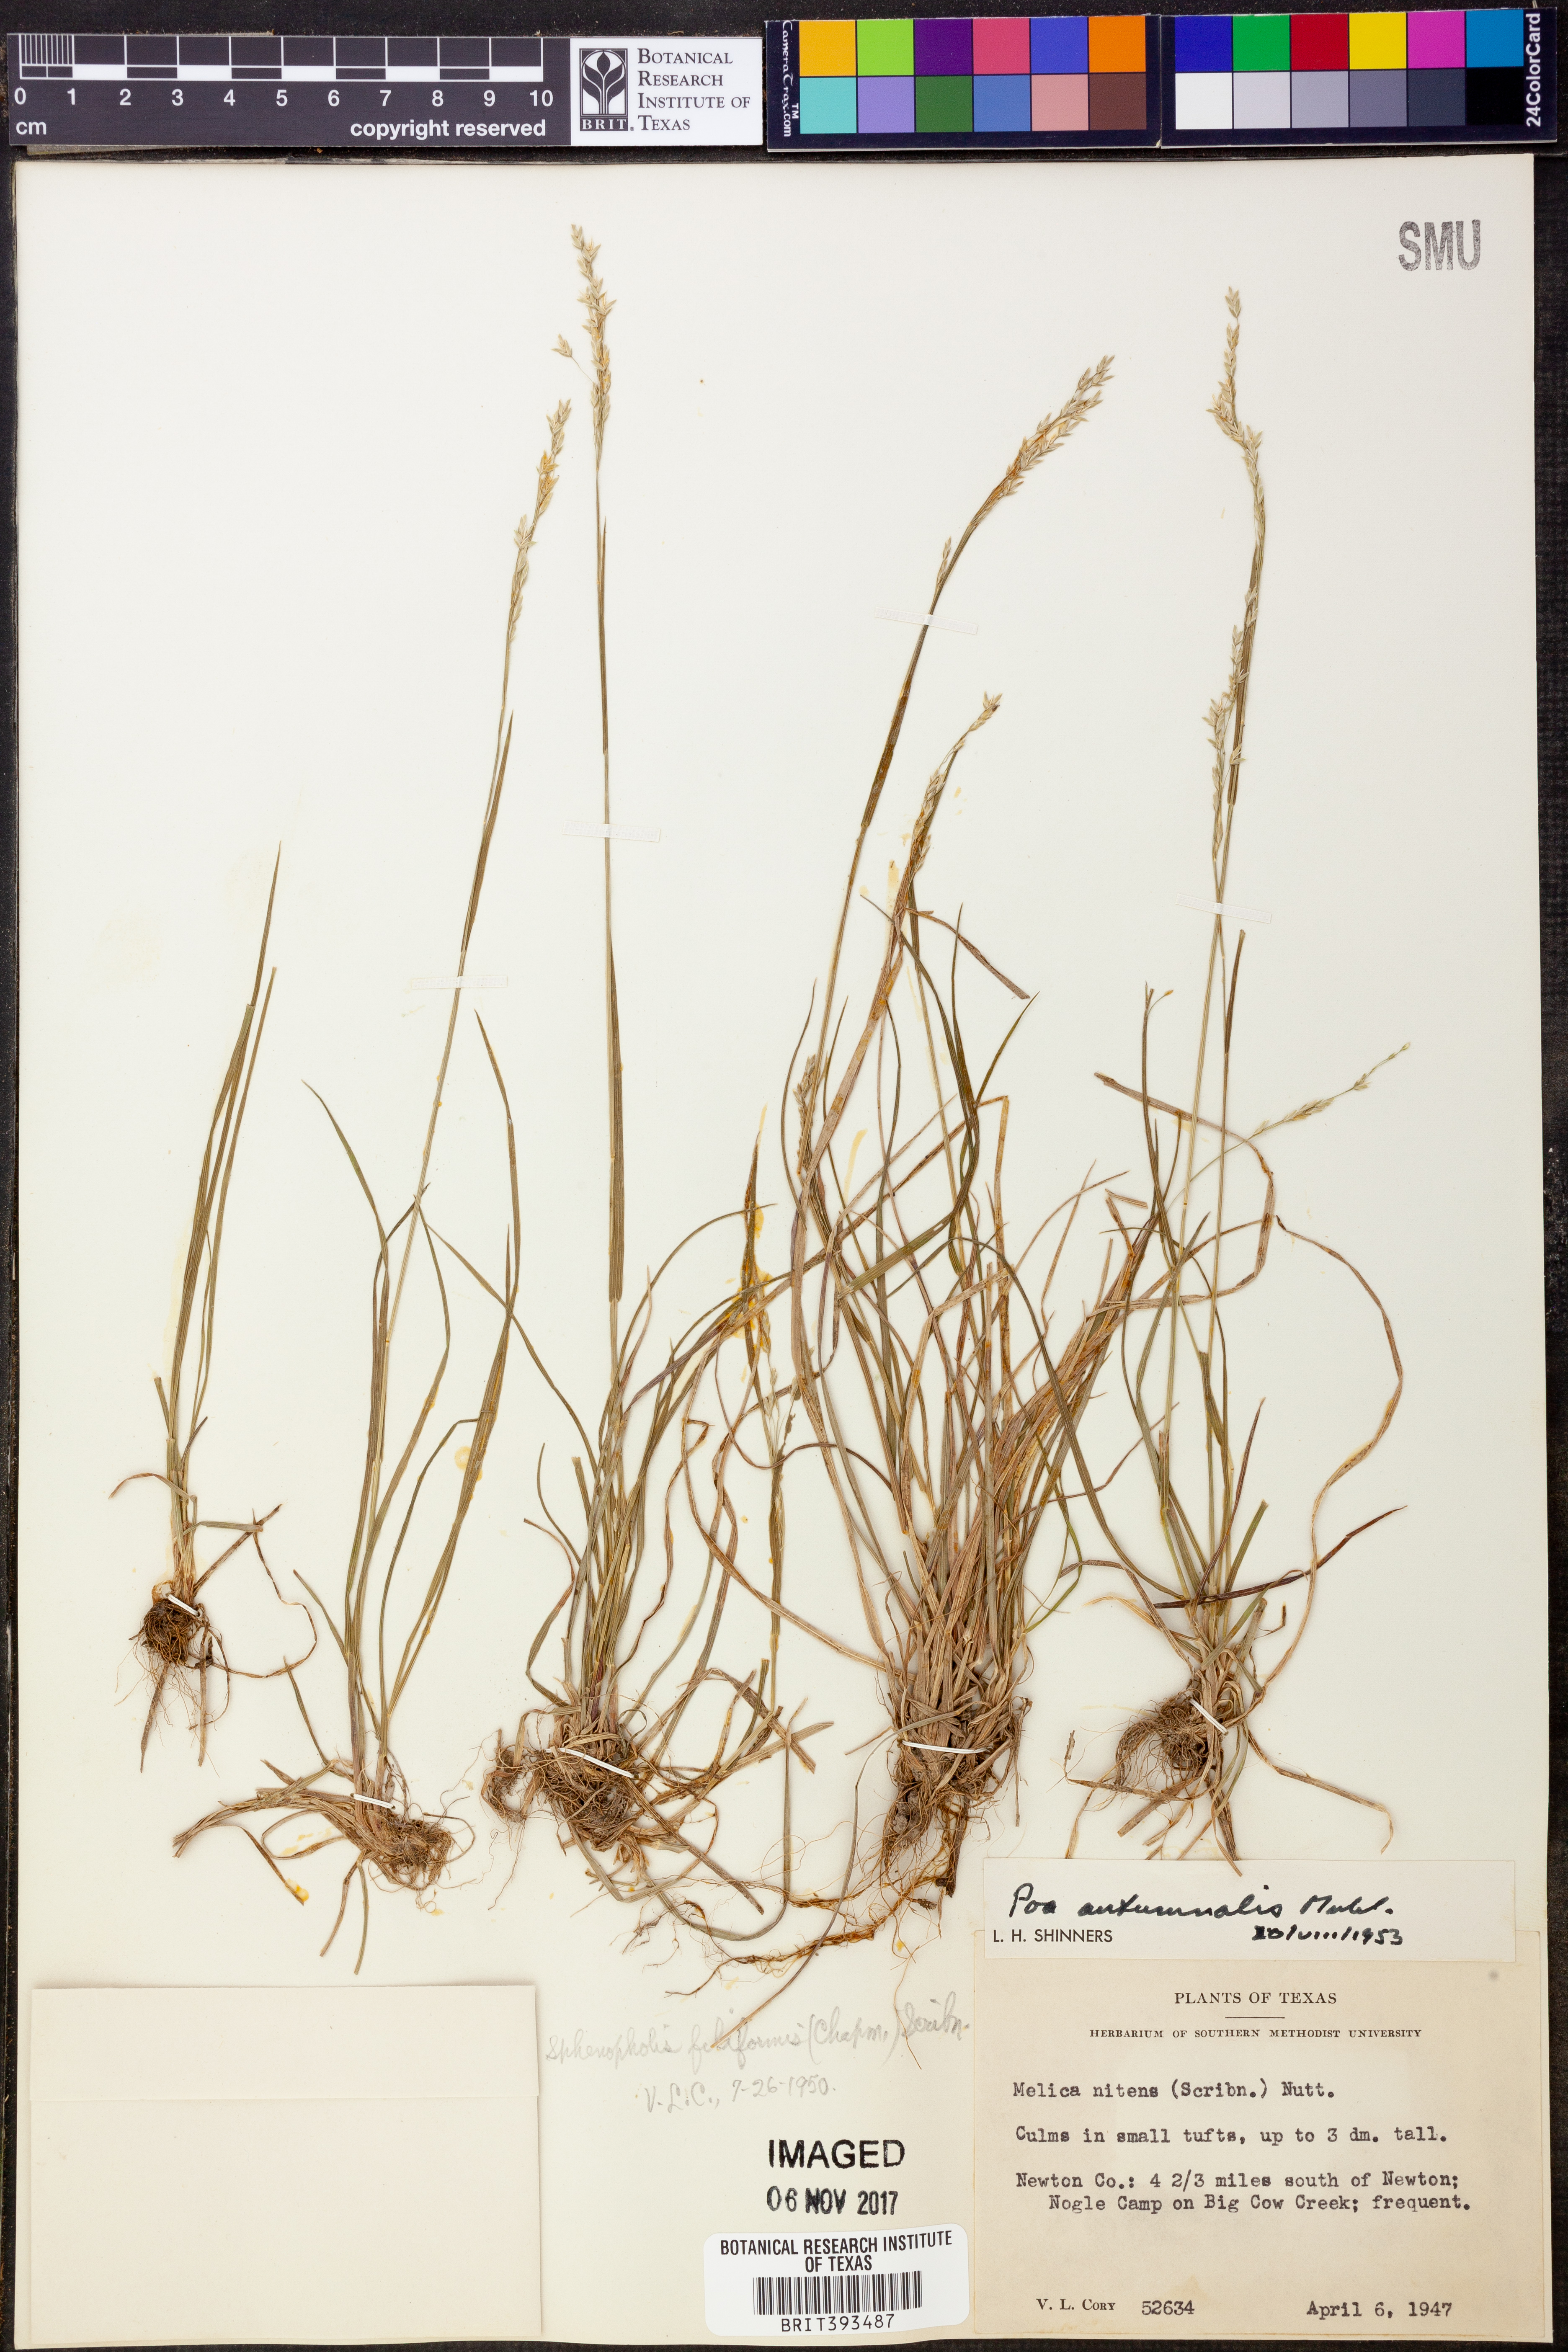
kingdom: Plantae
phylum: Tracheophyta
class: Liliopsida
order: Poales
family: Poaceae
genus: Poa
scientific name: Poa autumnalis
